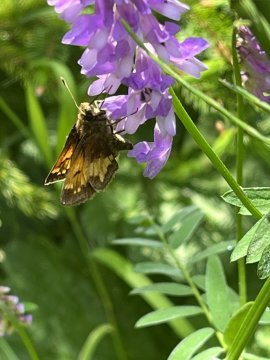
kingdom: Animalia
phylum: Arthropoda
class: Insecta
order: Lepidoptera
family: Hesperiidae
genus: Lon
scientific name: Lon hobomok
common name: Hobomok Skipper
